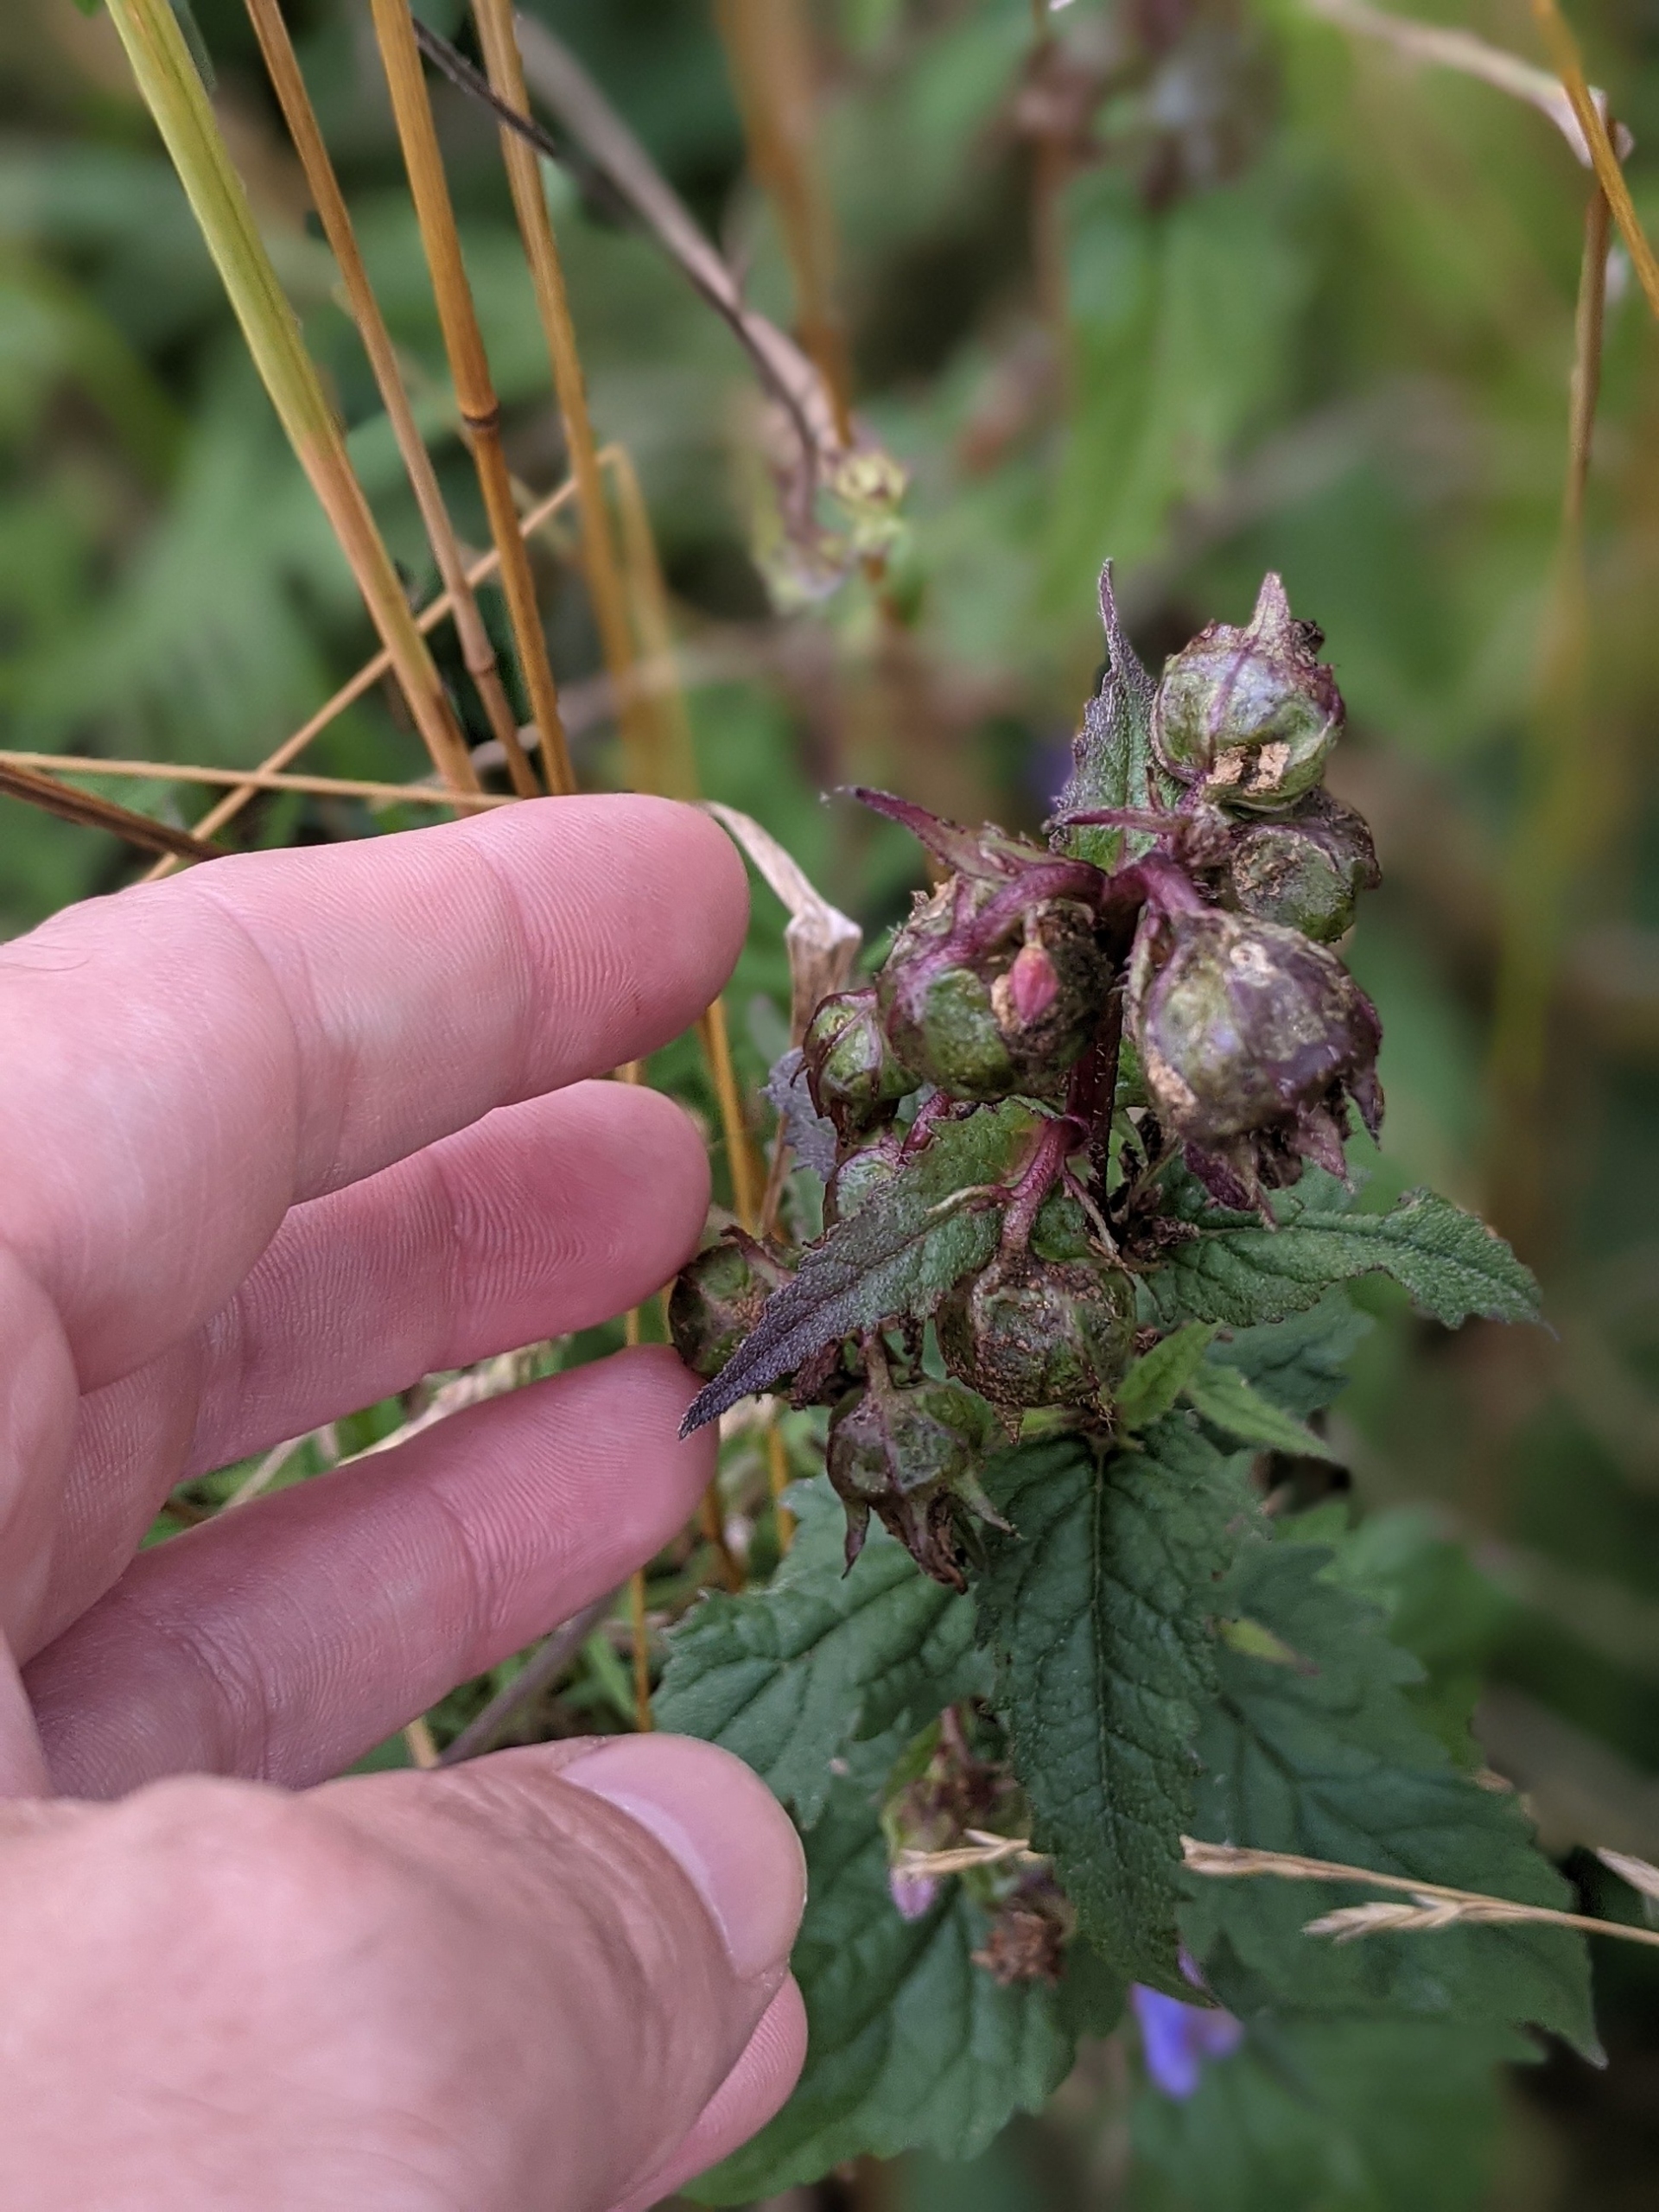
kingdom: Plantae
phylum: Tracheophyta
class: Magnoliopsida
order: Asterales
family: Campanulaceae
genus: Campanula
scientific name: Campanula trachelium
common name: Nælde-klokke
